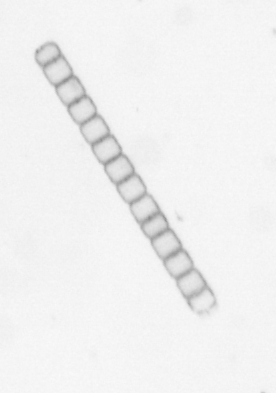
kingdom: Chromista
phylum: Ochrophyta
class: Bacillariophyceae
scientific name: Bacillariophyceae
